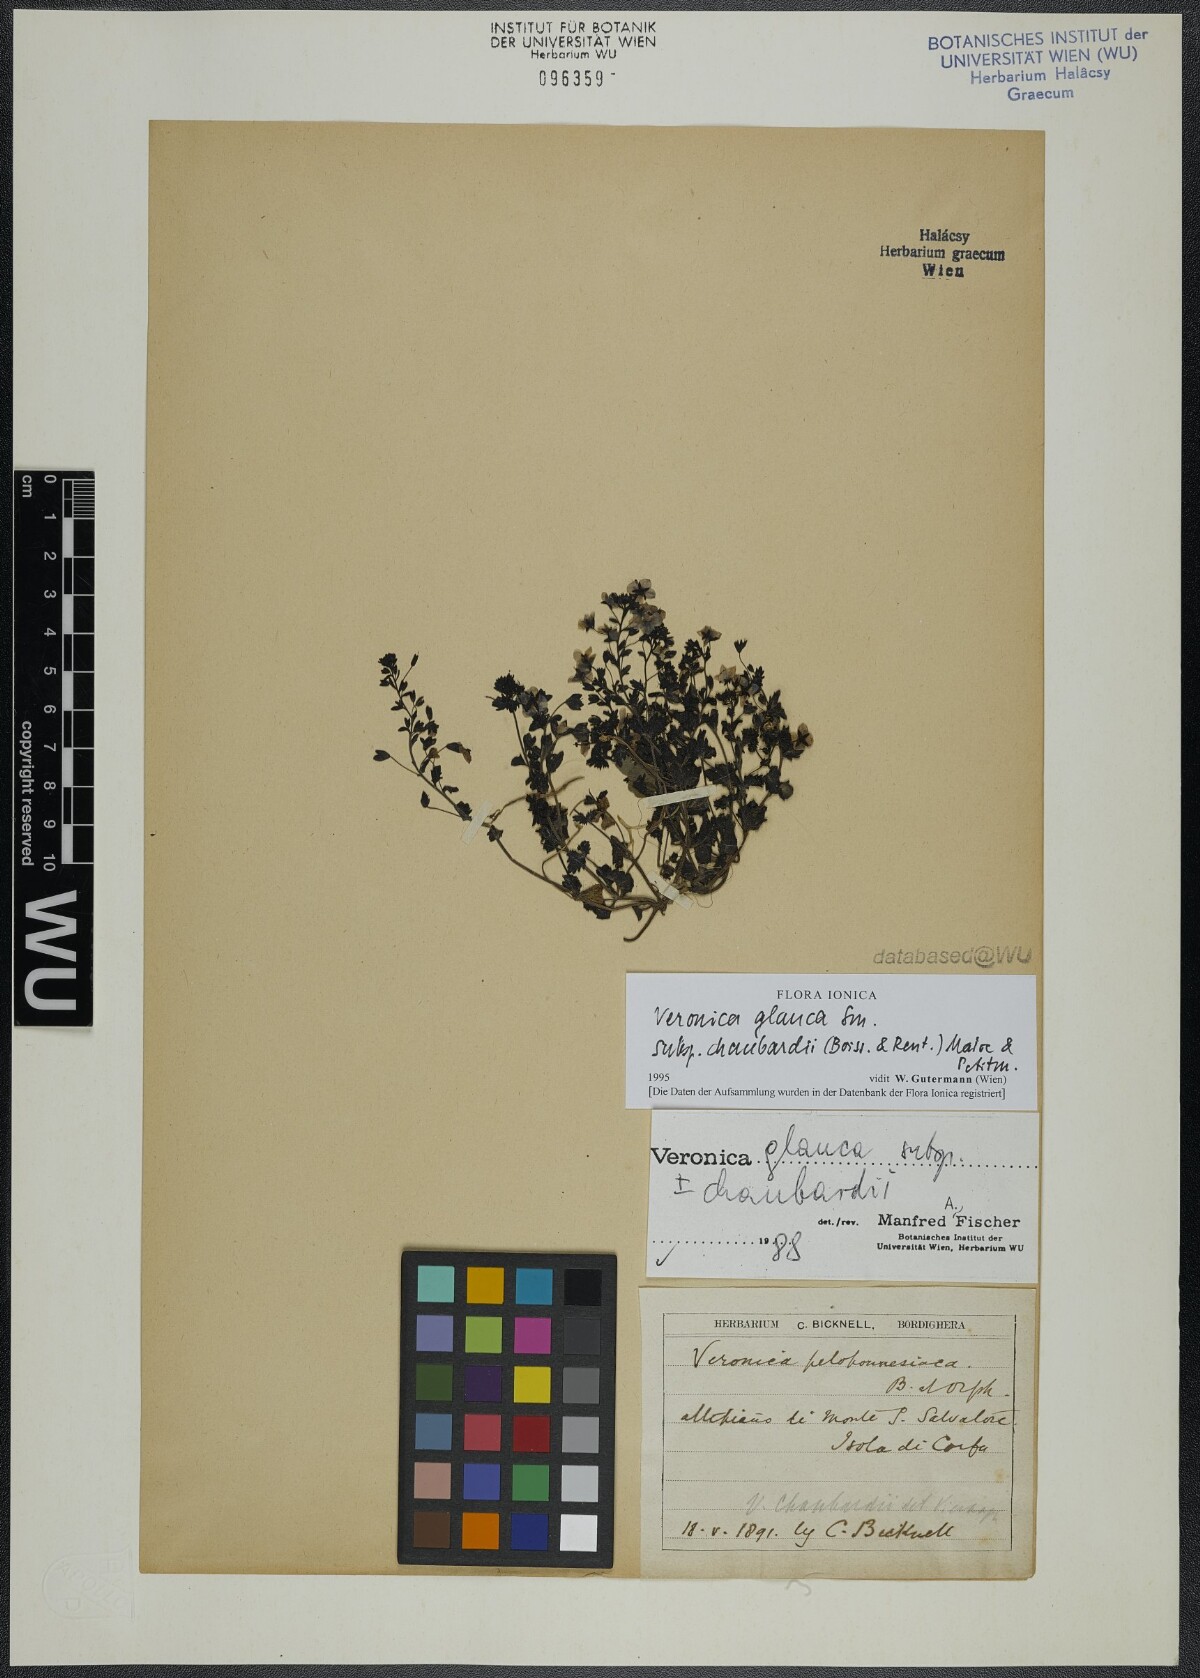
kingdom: Plantae
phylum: Tracheophyta
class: Magnoliopsida
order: Lamiales
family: Plantaginaceae
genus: Veronica
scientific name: Veronica glauca
